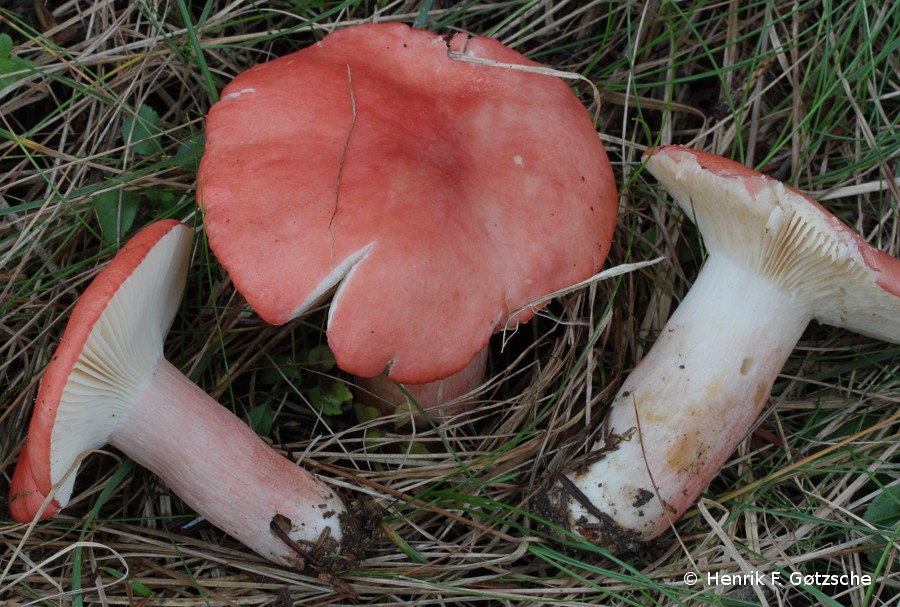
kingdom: Fungi
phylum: Basidiomycota
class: Agaricomycetes
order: Russulales
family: Russulaceae
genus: Russula
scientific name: Russula sanguinea
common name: blodrød skørhat
